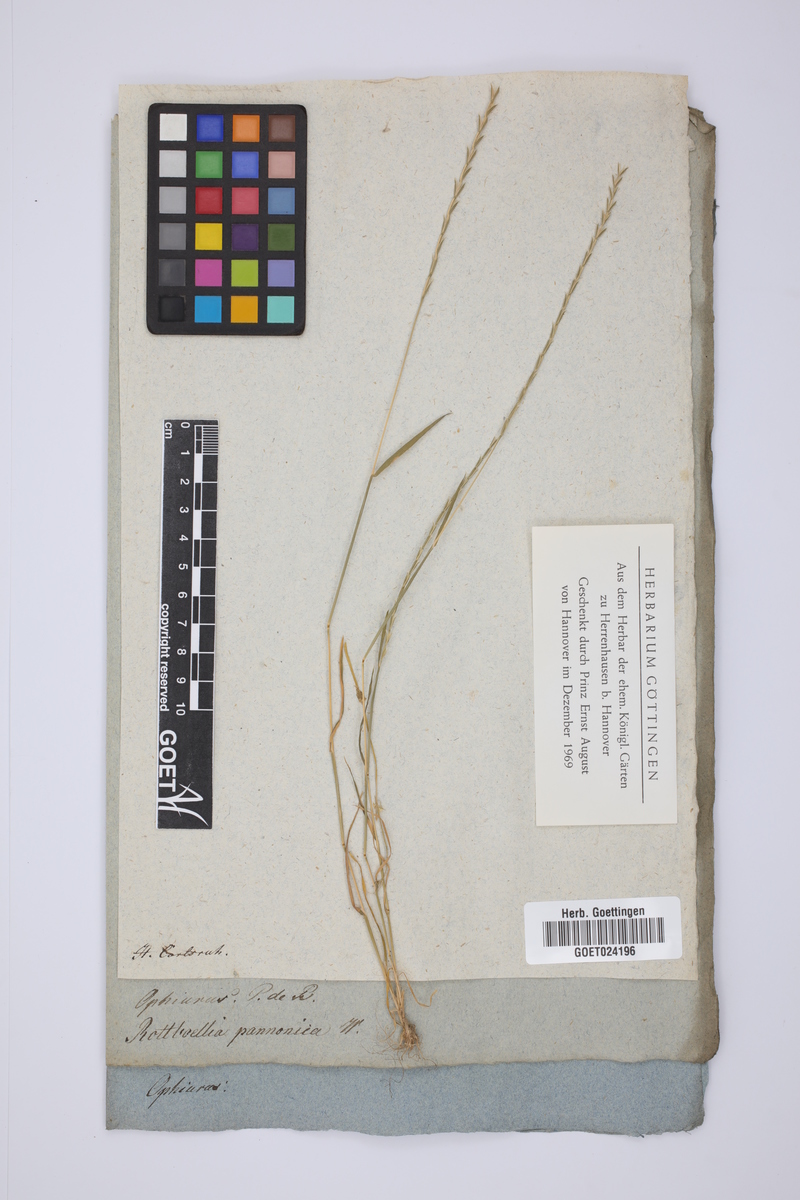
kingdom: Plantae
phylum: Tracheophyta
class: Liliopsida
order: Poales
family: Poaceae
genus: Pholiurus
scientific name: Pholiurus pannonicus
